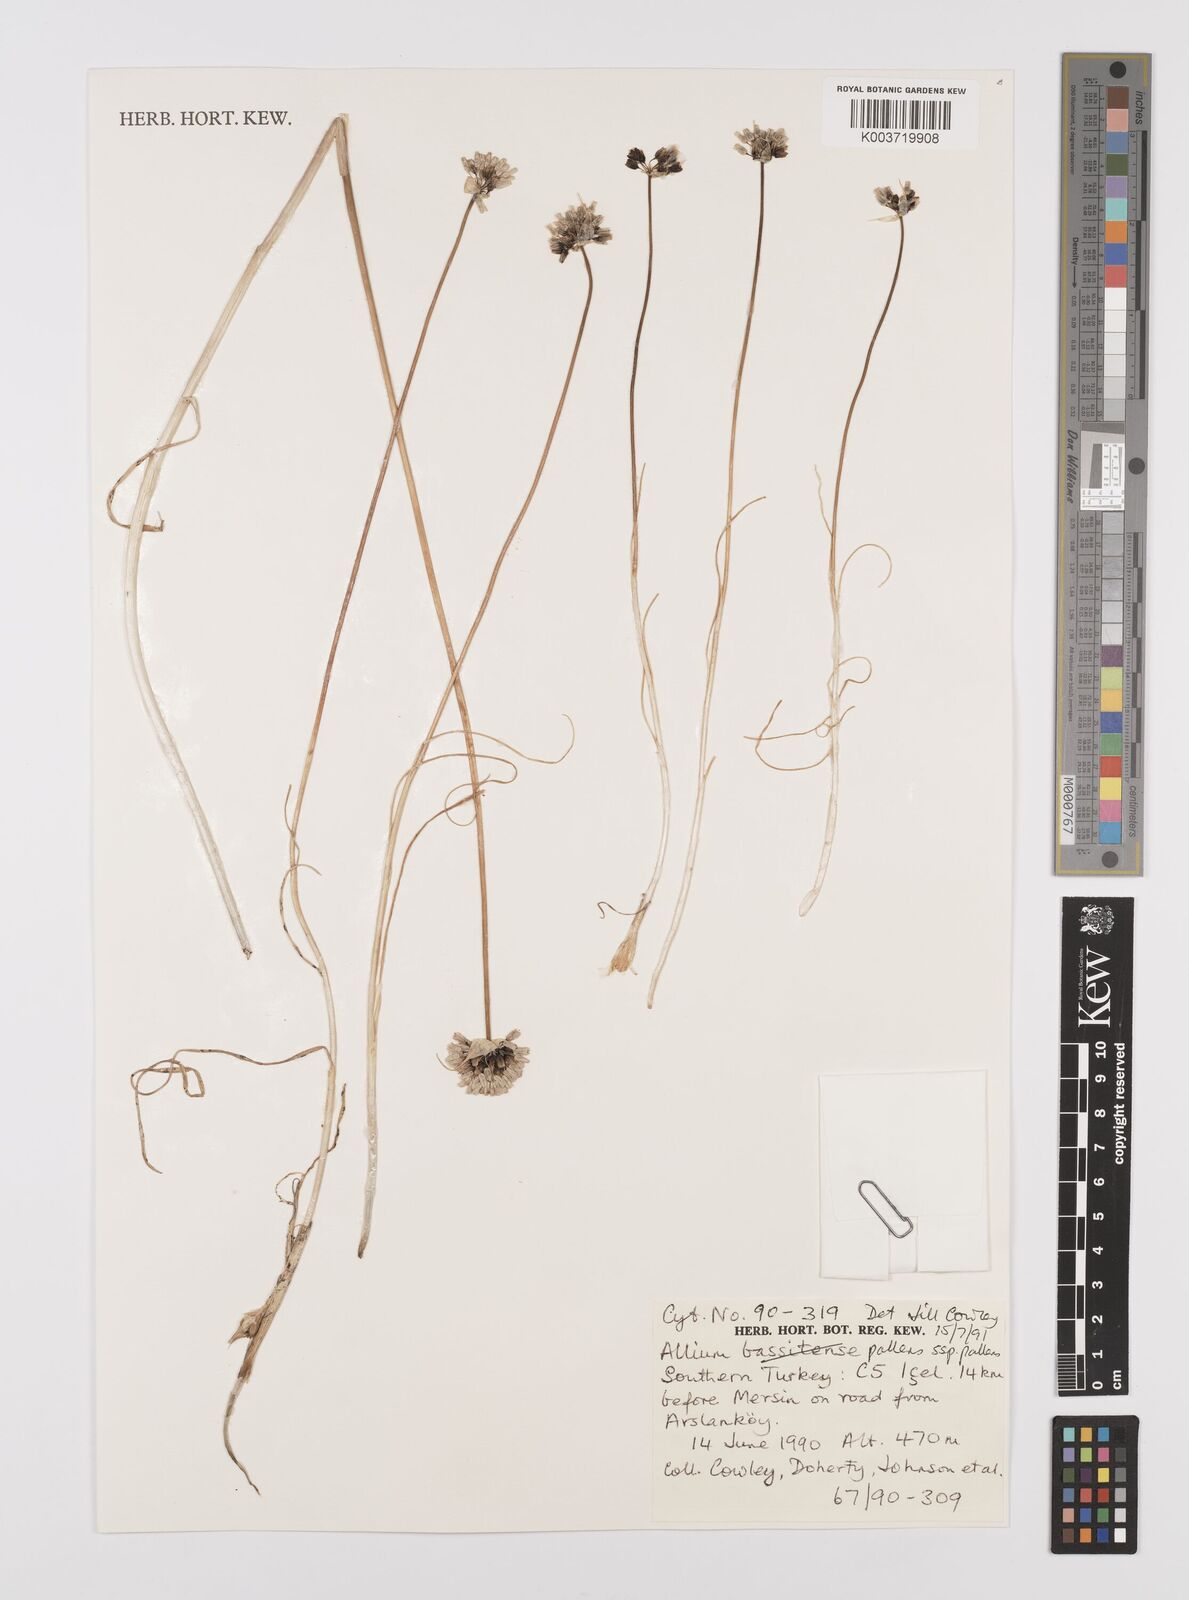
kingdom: Plantae
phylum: Tracheophyta
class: Liliopsida
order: Asparagales
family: Amaryllidaceae
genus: Allium
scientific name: Allium pallens
